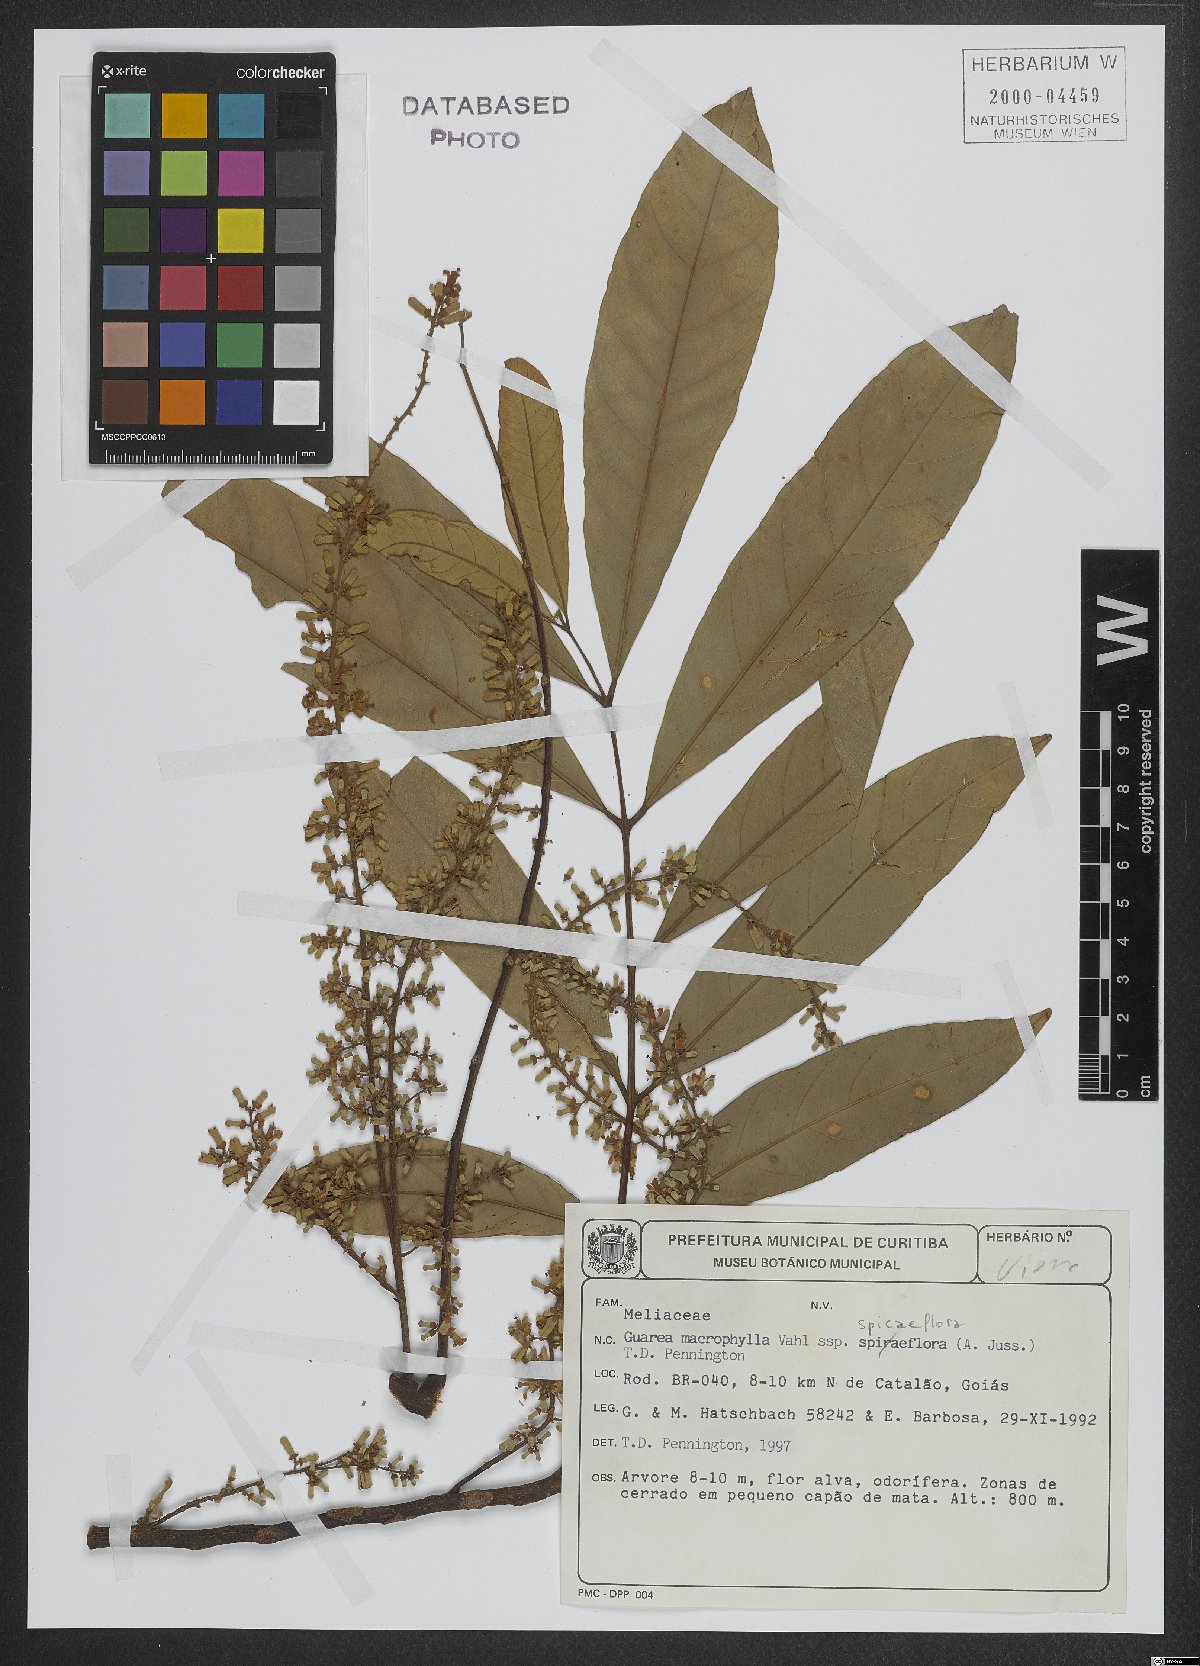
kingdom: Plantae
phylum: Tracheophyta
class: Magnoliopsida
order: Sapindales
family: Meliaceae
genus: Guarea
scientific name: Guarea macrophylla
